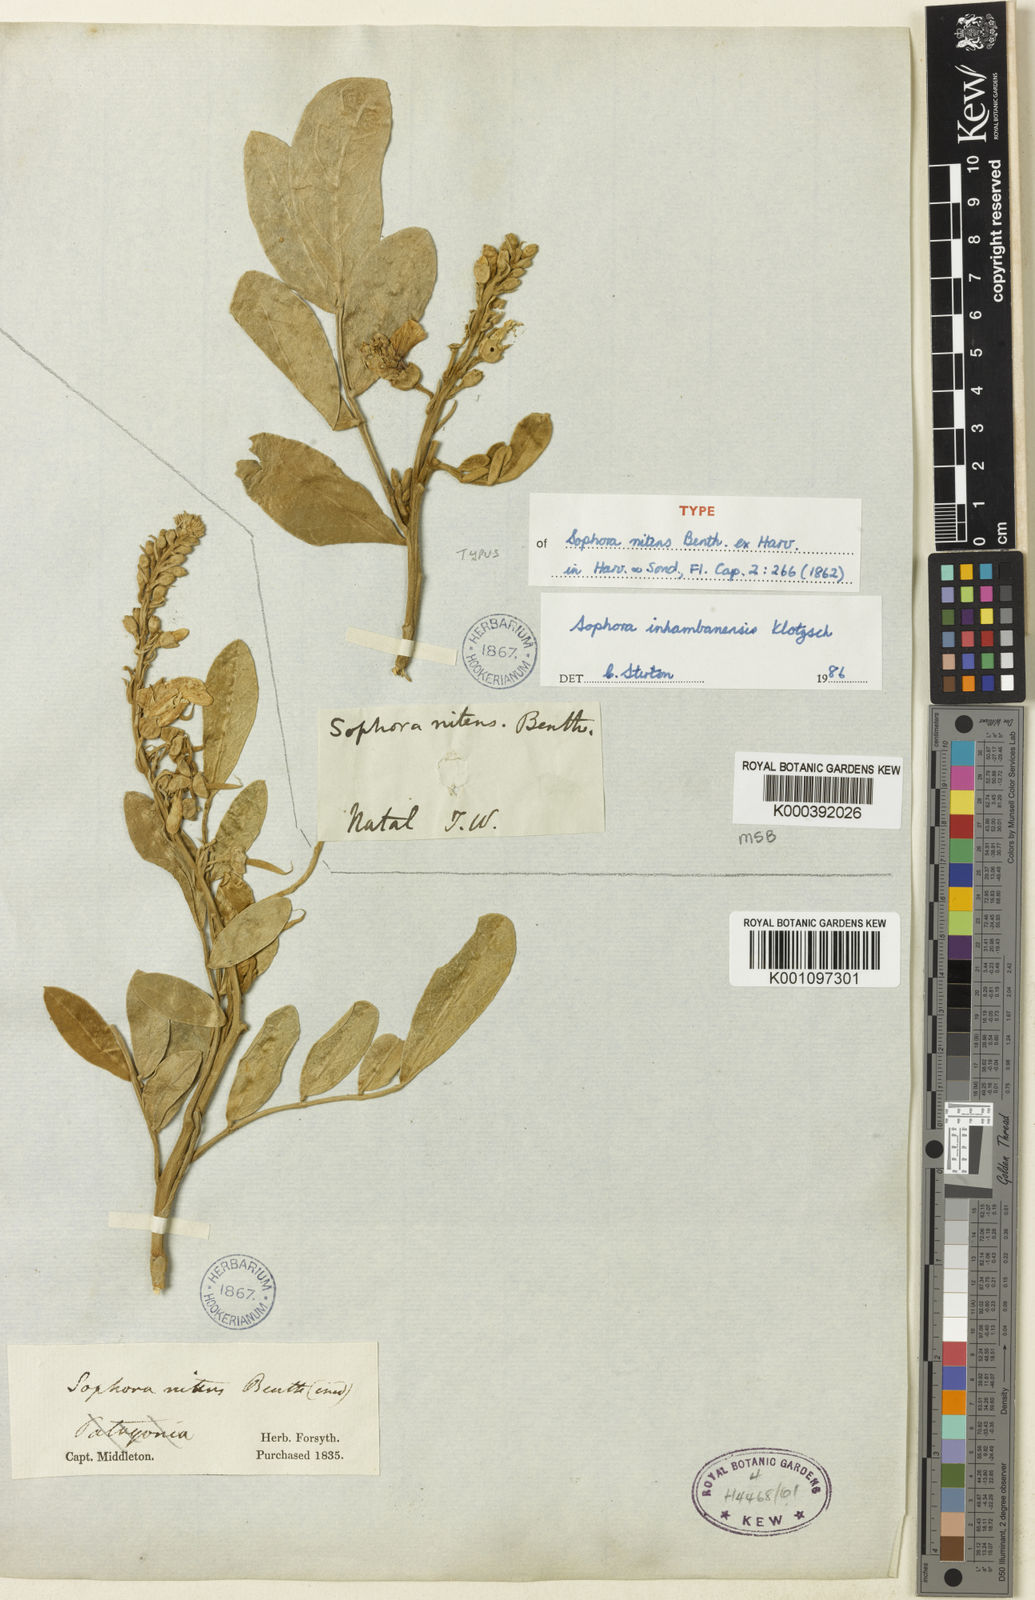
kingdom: Plantae
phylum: Tracheophyta
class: Magnoliopsida
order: Fabales
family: Fabaceae
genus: Sophora
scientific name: Sophora inhambanensis
